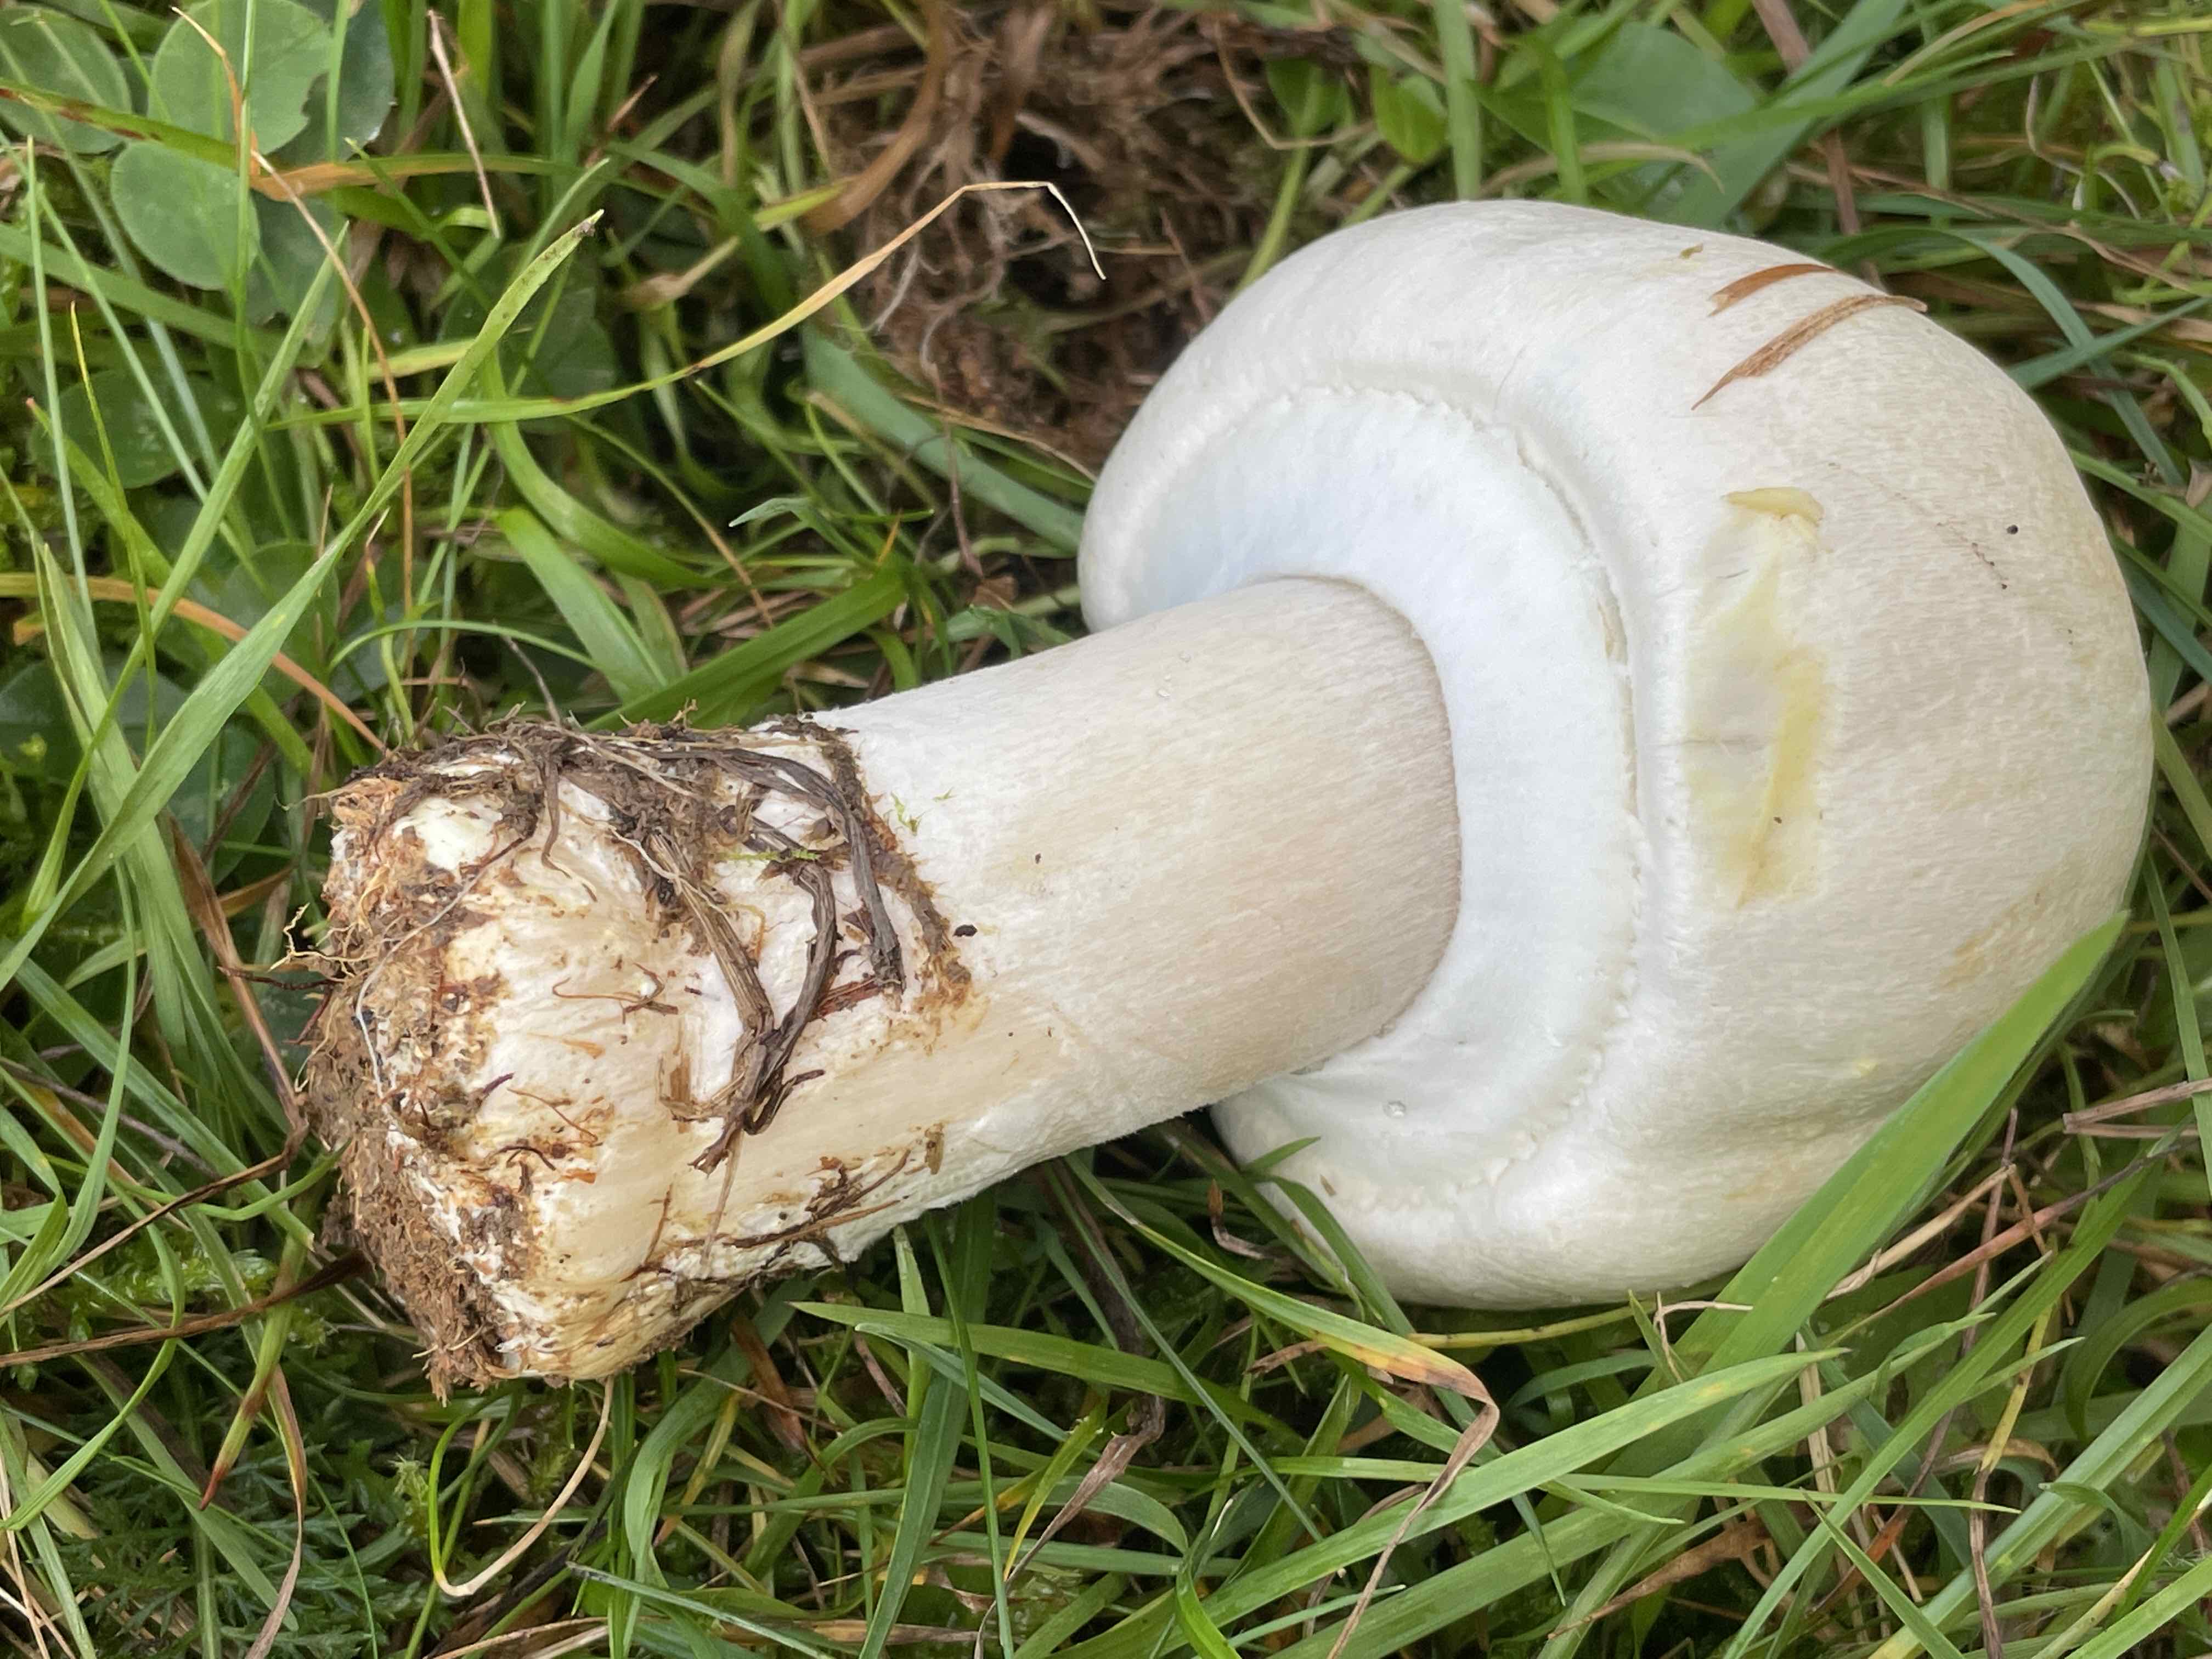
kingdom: Fungi
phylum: Basidiomycota
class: Agaricomycetes
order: Agaricales
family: Agaricaceae
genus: Agaricus
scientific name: Agaricus
